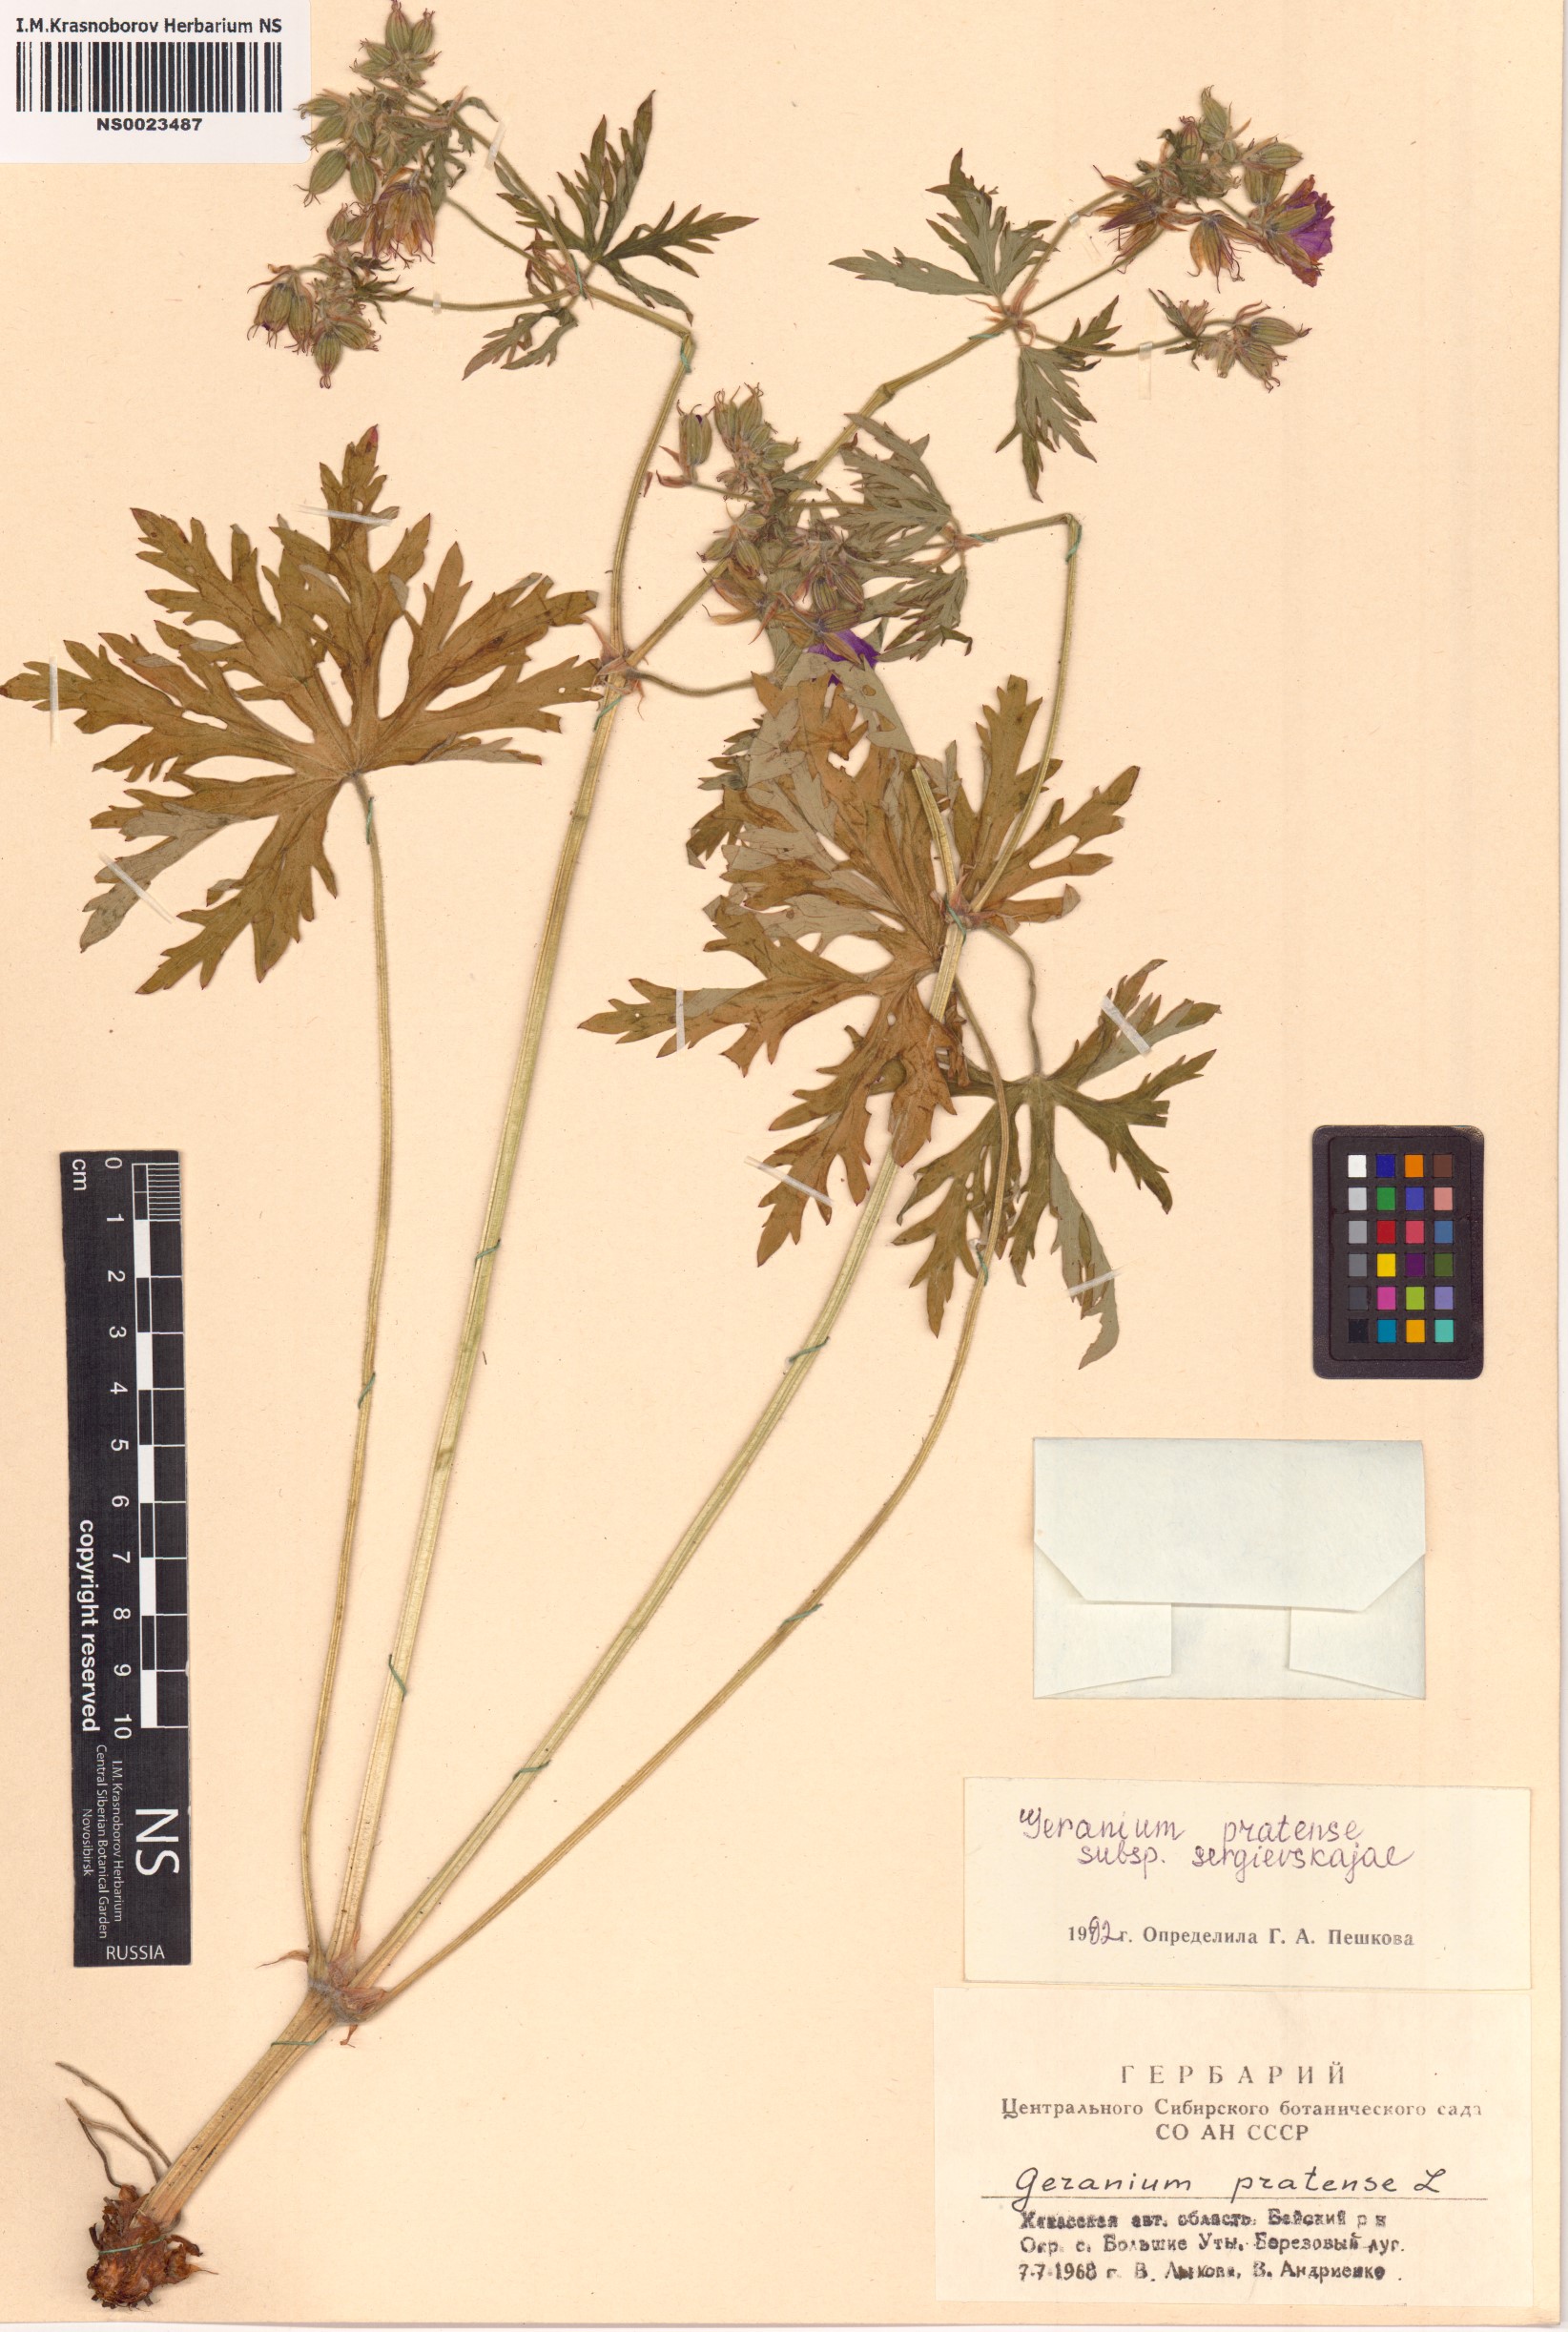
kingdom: Plantae
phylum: Tracheophyta
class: Magnoliopsida
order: Geraniales
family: Geraniaceae
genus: Geranium
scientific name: Geranium pratense
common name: Meadow crane's-bill
